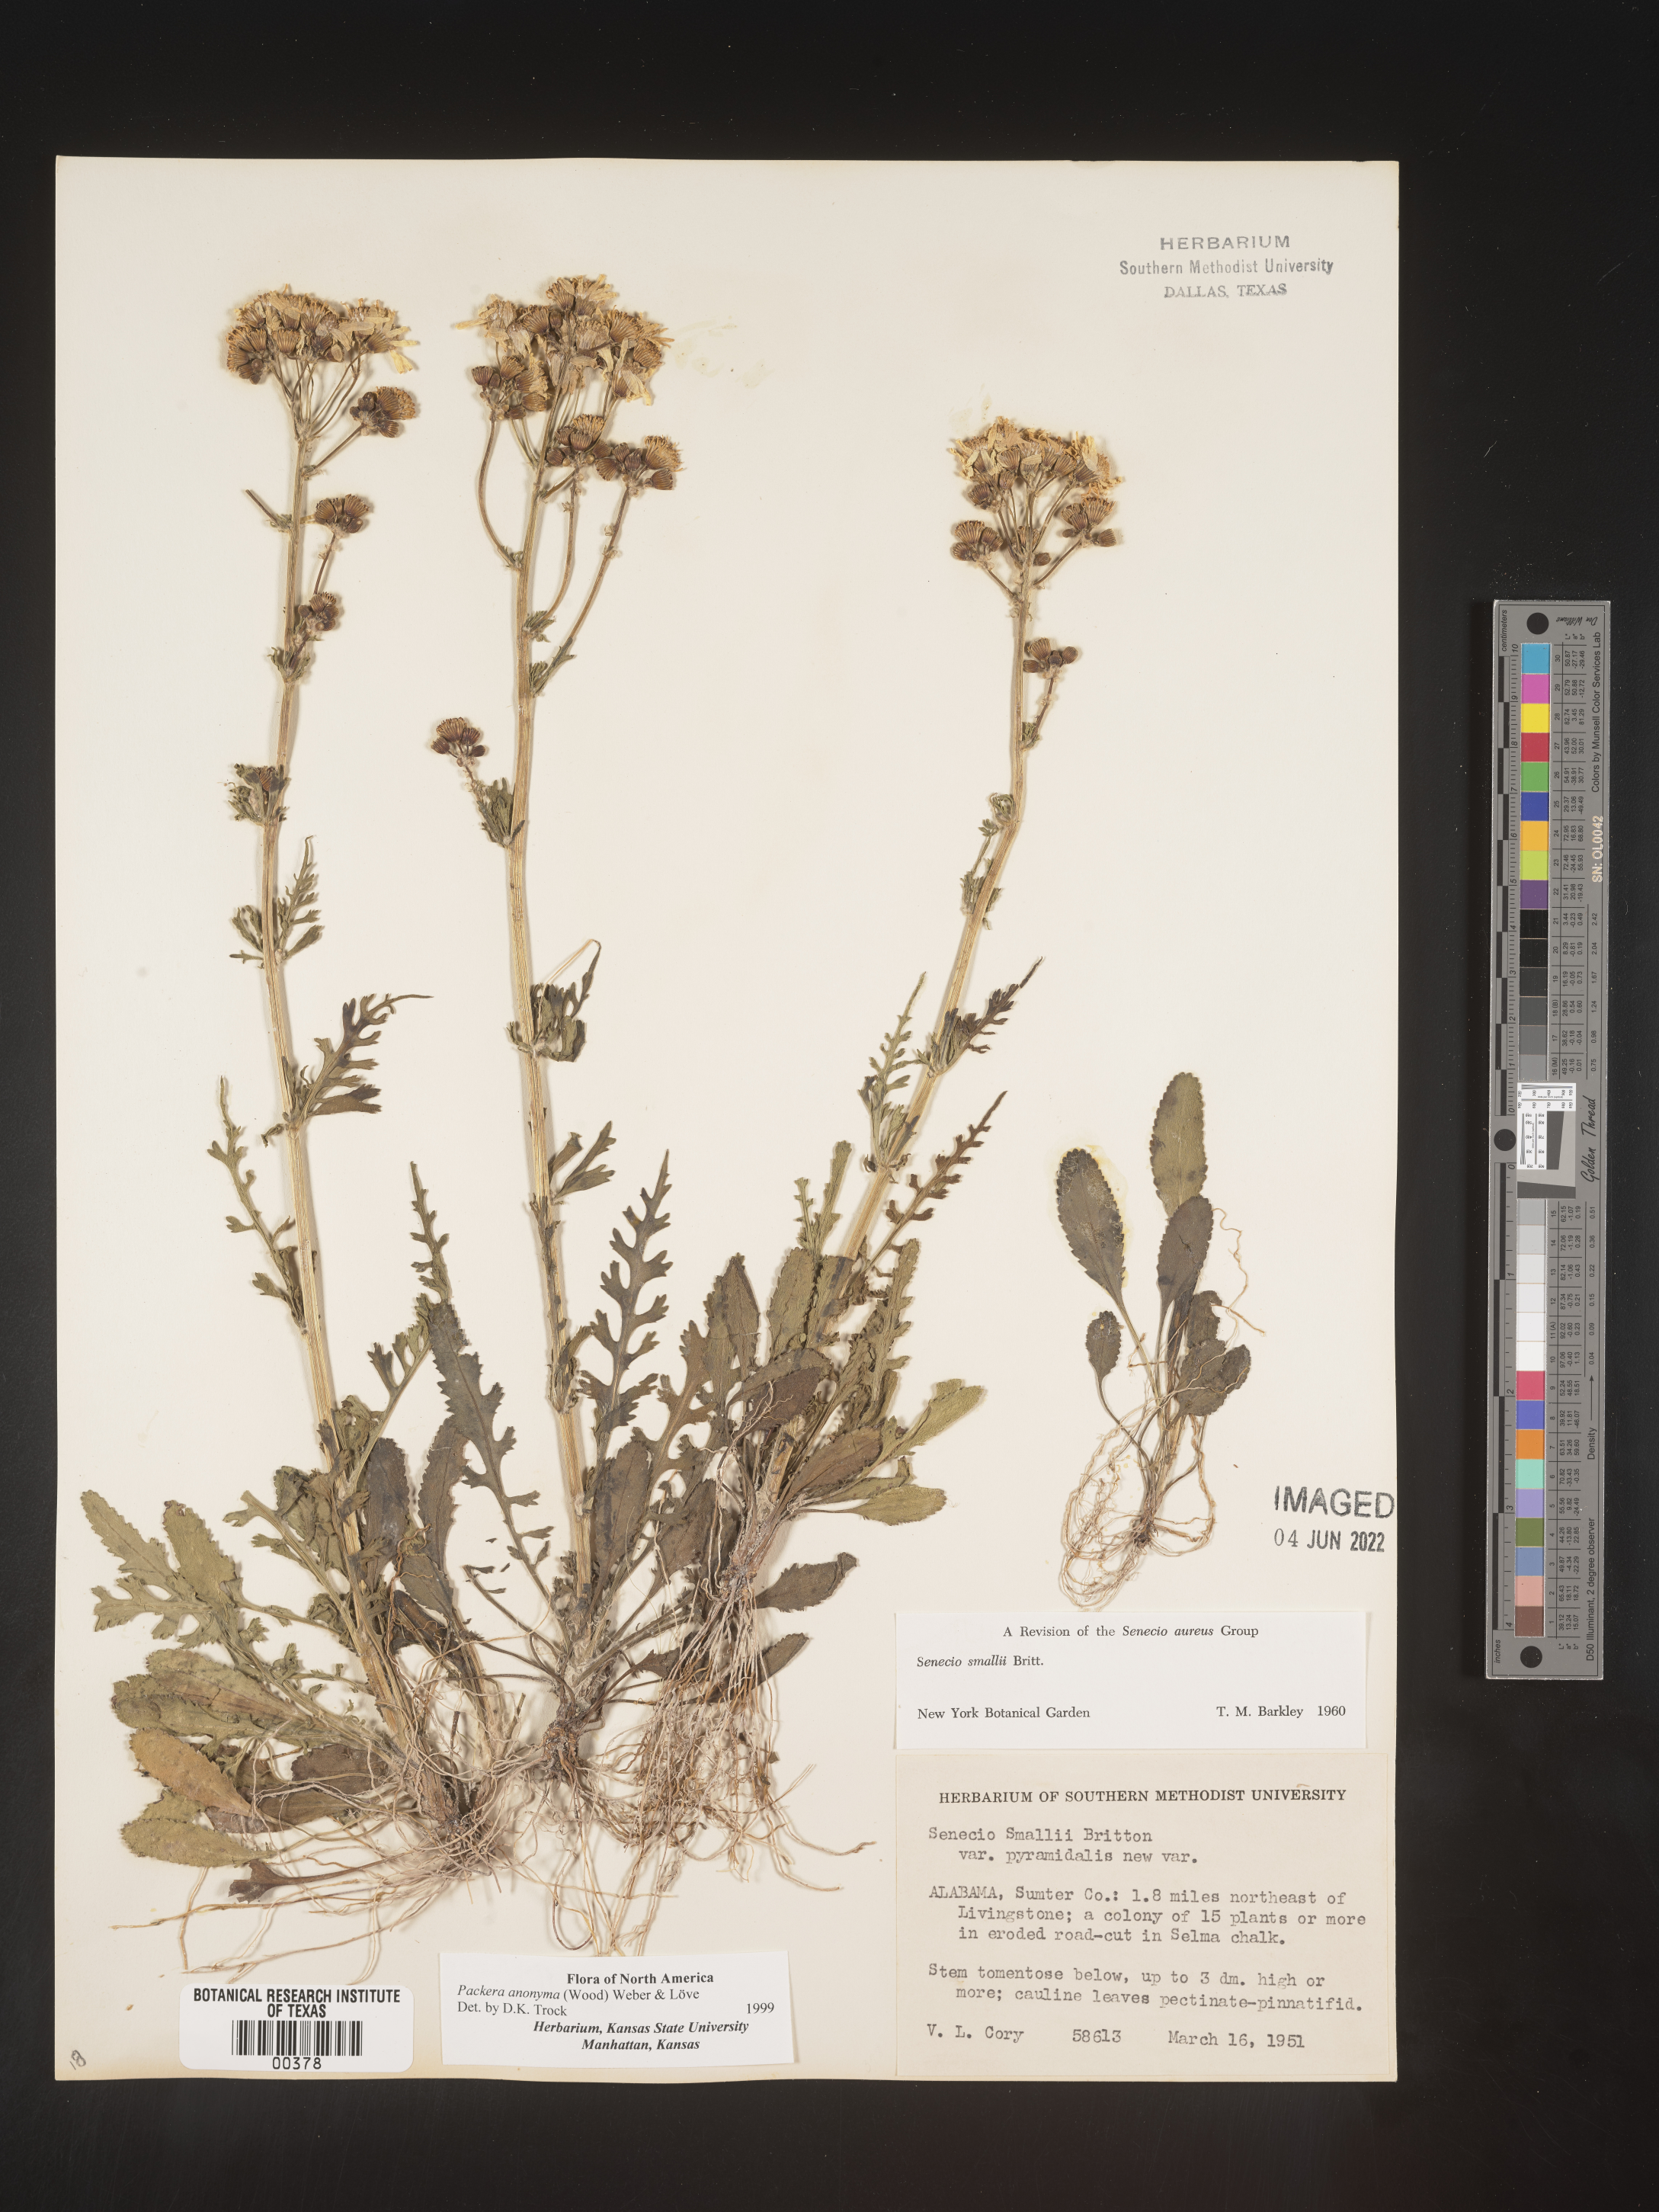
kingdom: Plantae
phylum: Tracheophyta
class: Magnoliopsida
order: Asterales
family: Asteraceae
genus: Packera
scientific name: Packera anonyma
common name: Small ragwort
